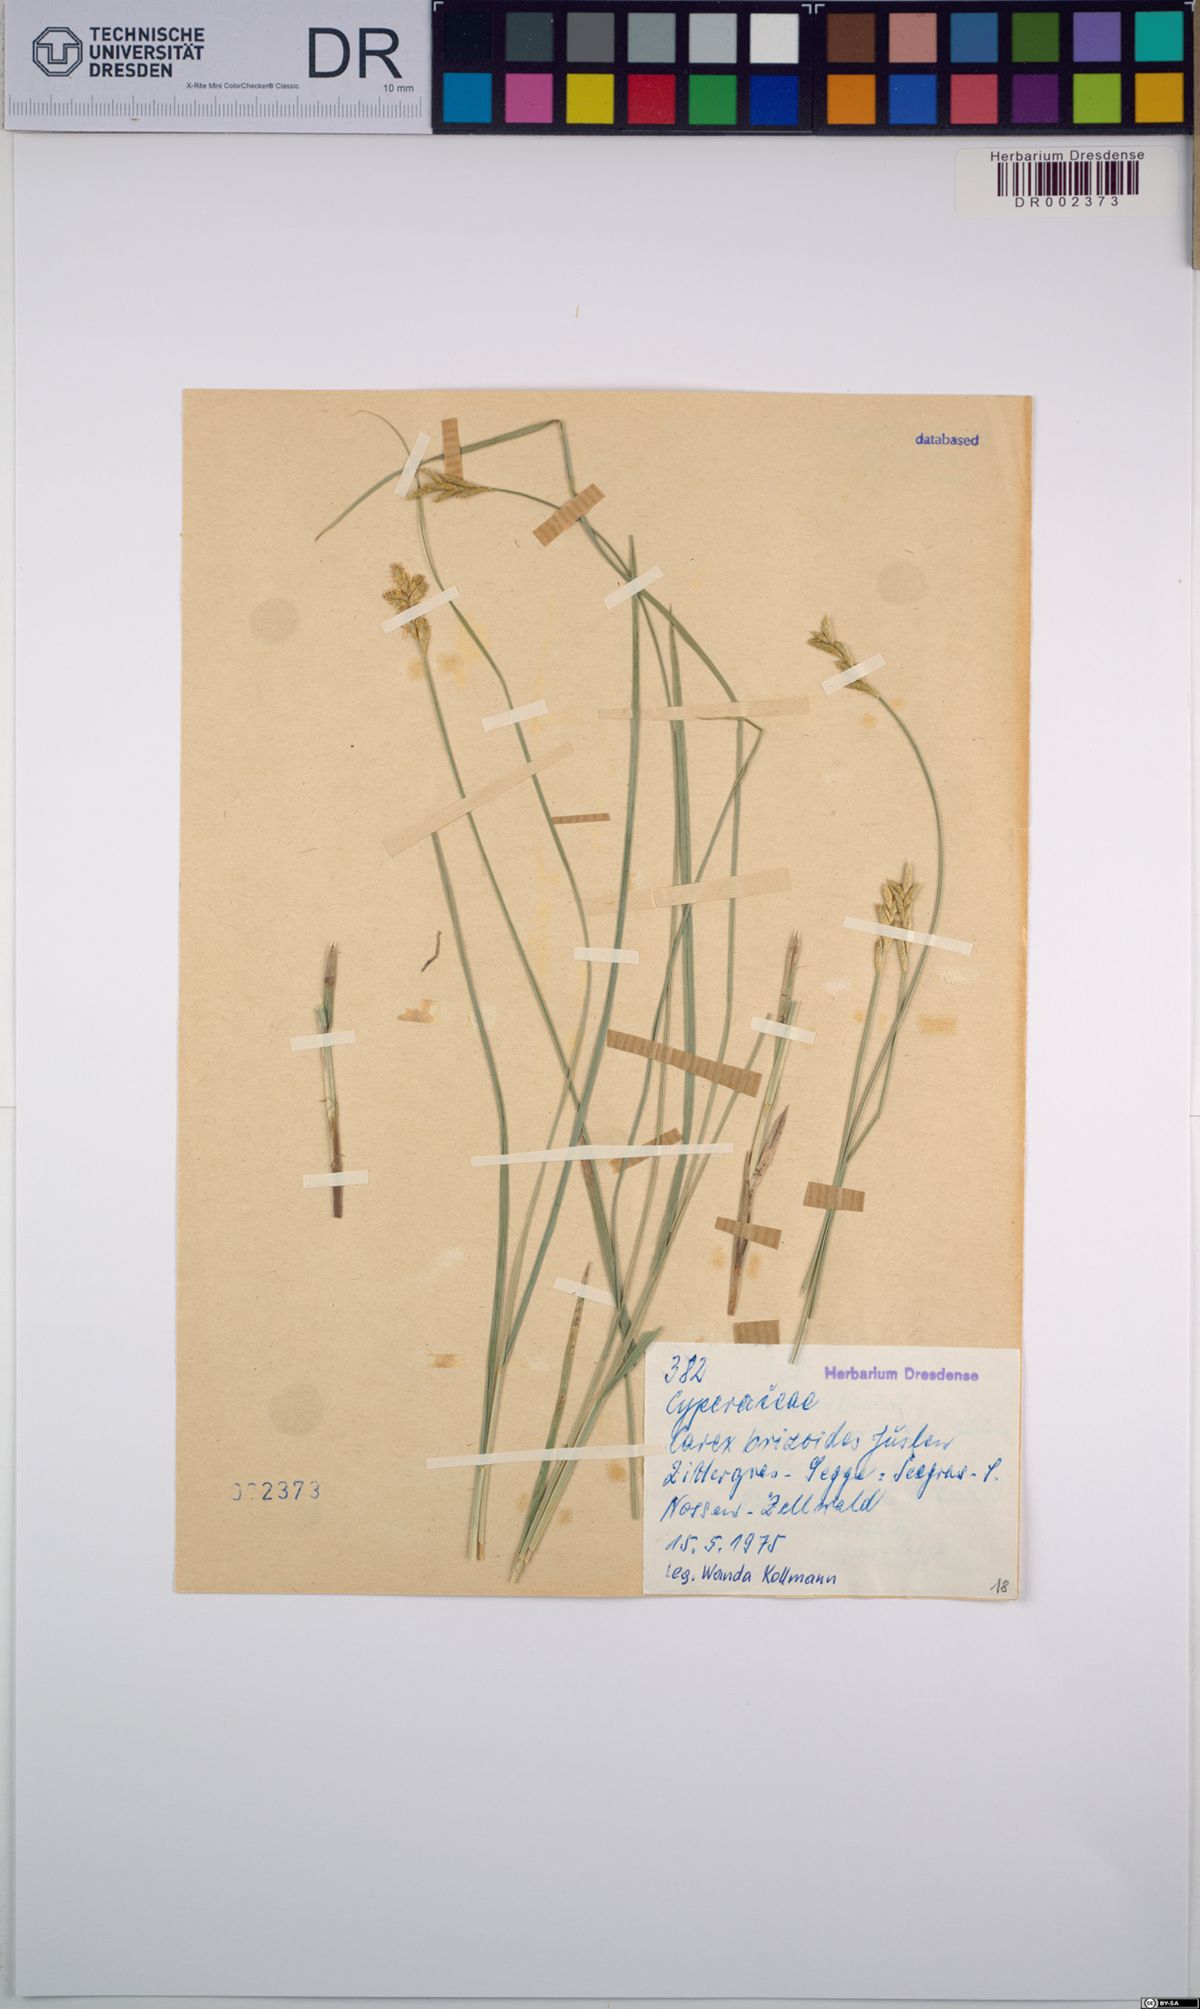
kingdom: Plantae
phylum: Tracheophyta
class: Liliopsida
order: Poales
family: Cyperaceae
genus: Carex
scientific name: Carex brizoides
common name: Quaking-grass sedge
